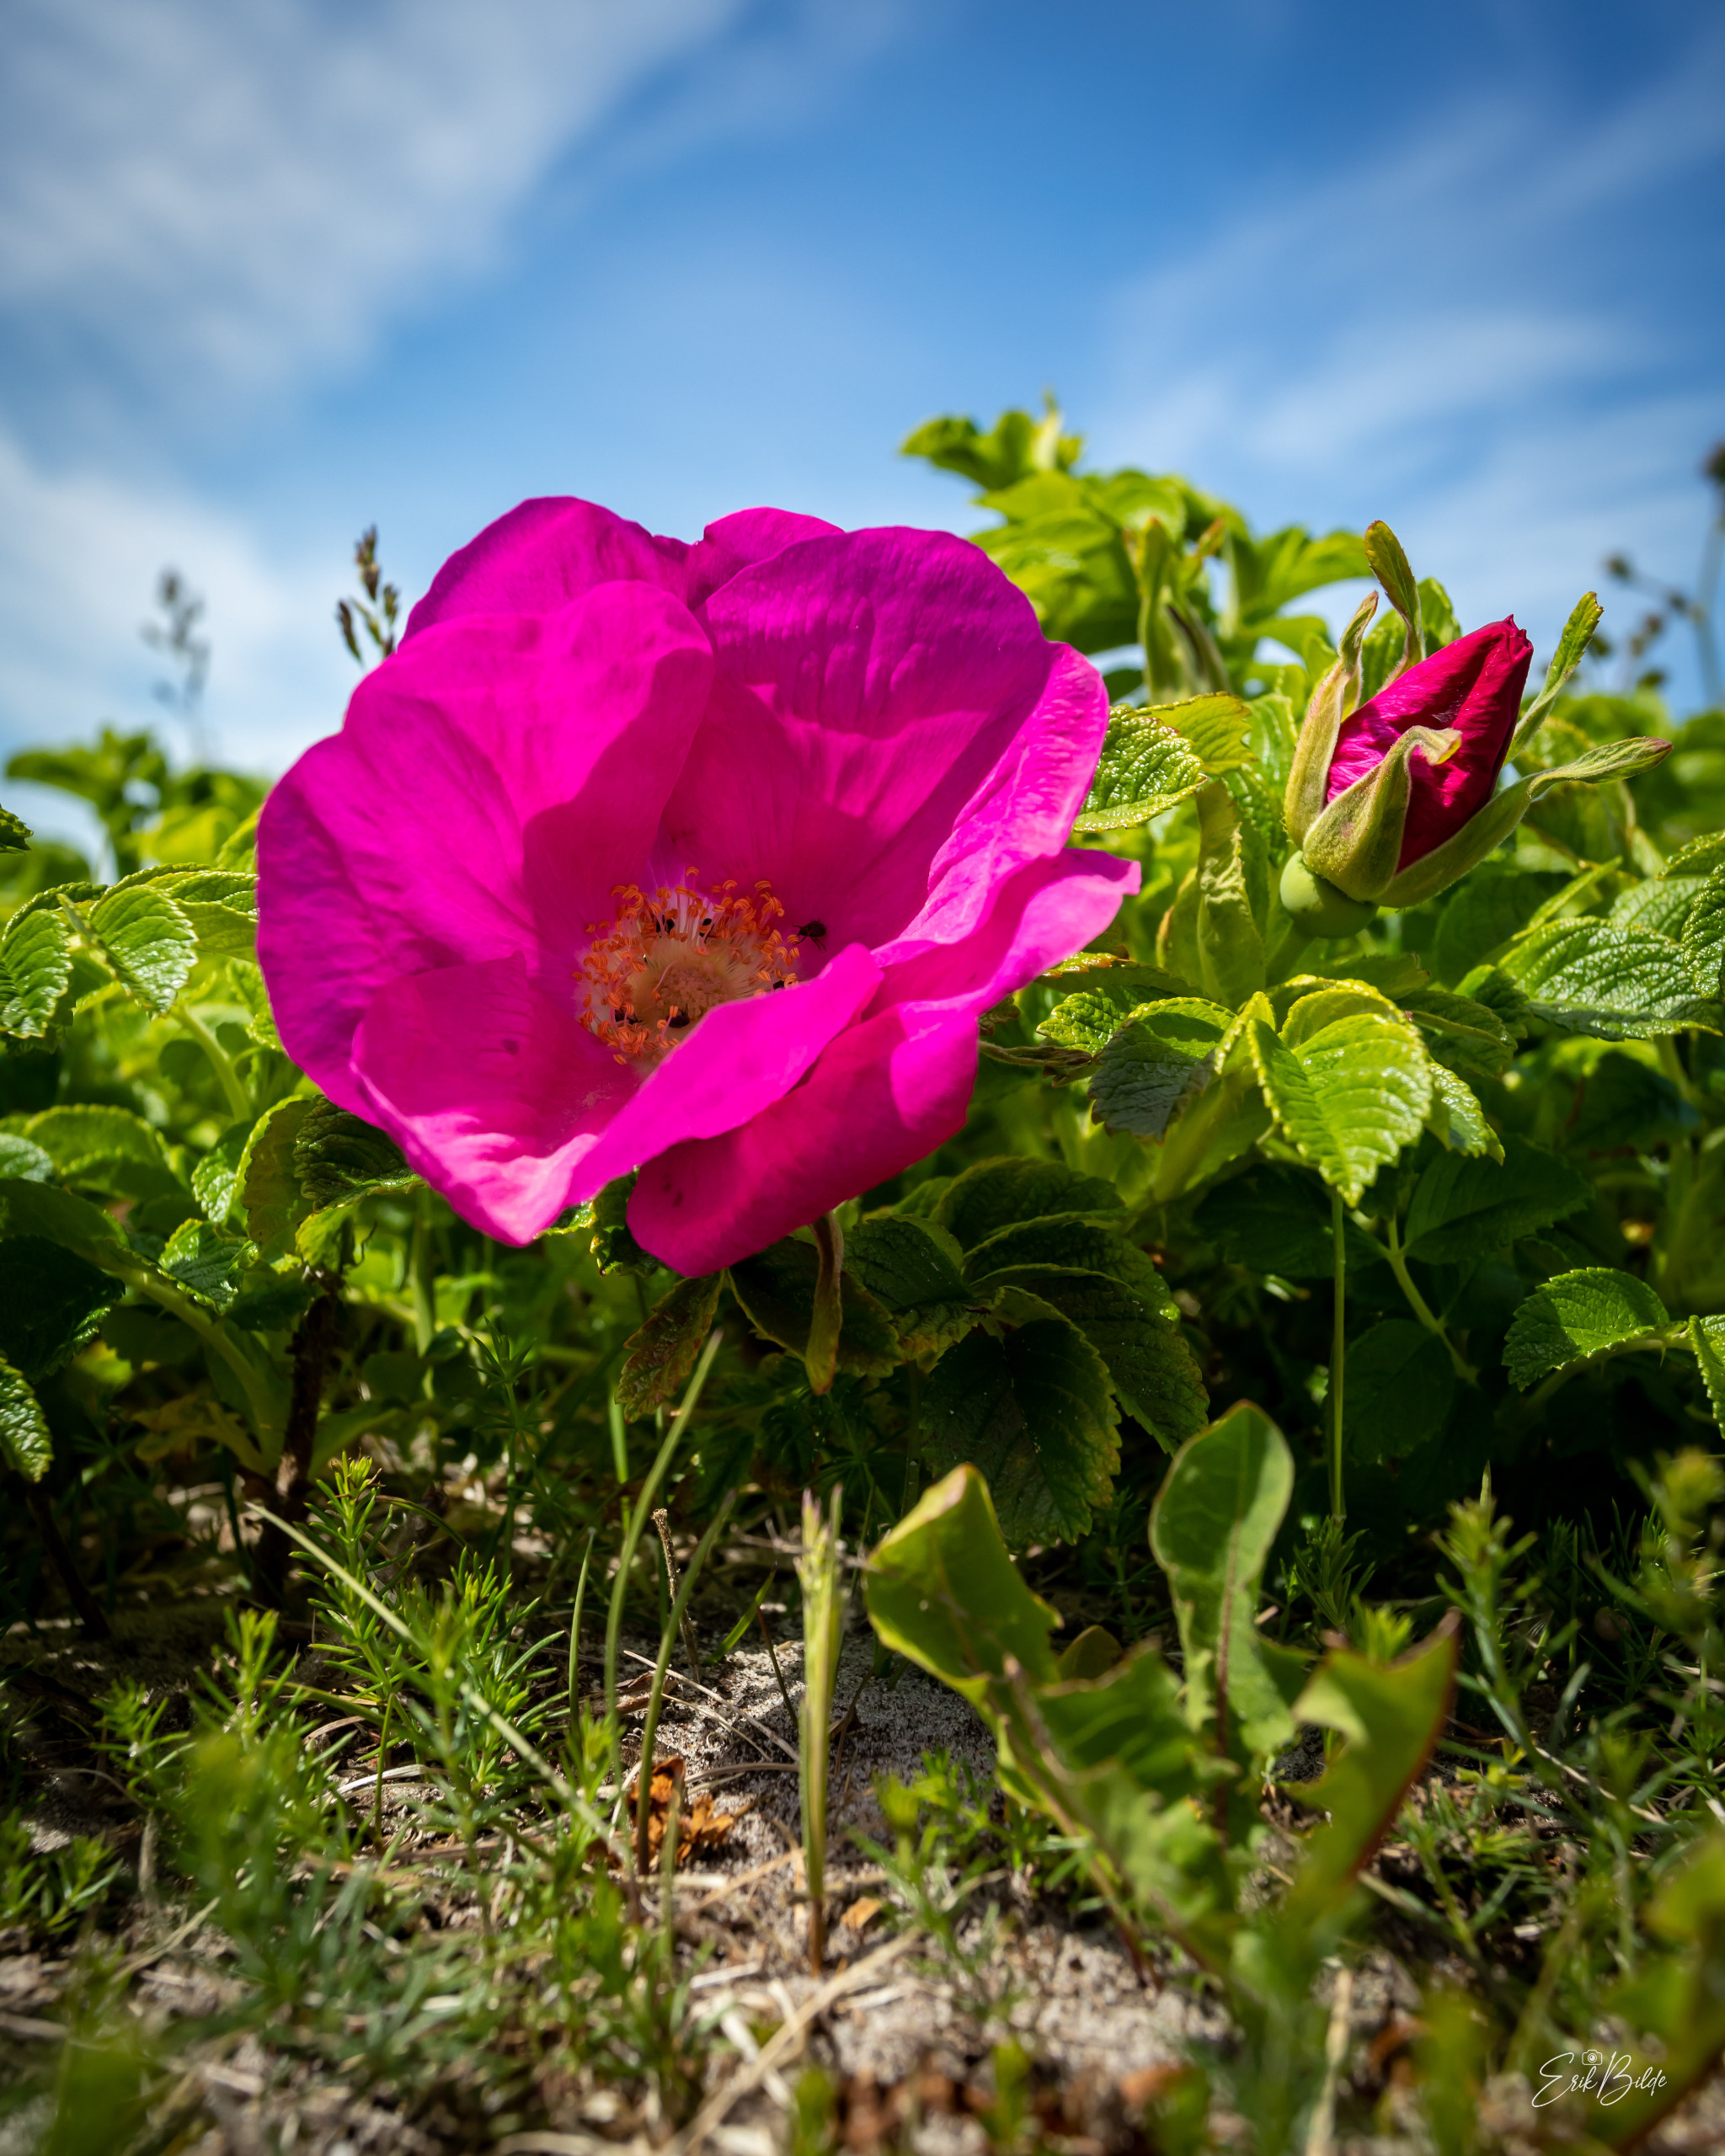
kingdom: Plantae
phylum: Tracheophyta
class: Magnoliopsida
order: Rosales
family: Rosaceae
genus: Rosa
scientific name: Rosa rugosa
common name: Rynket rose
